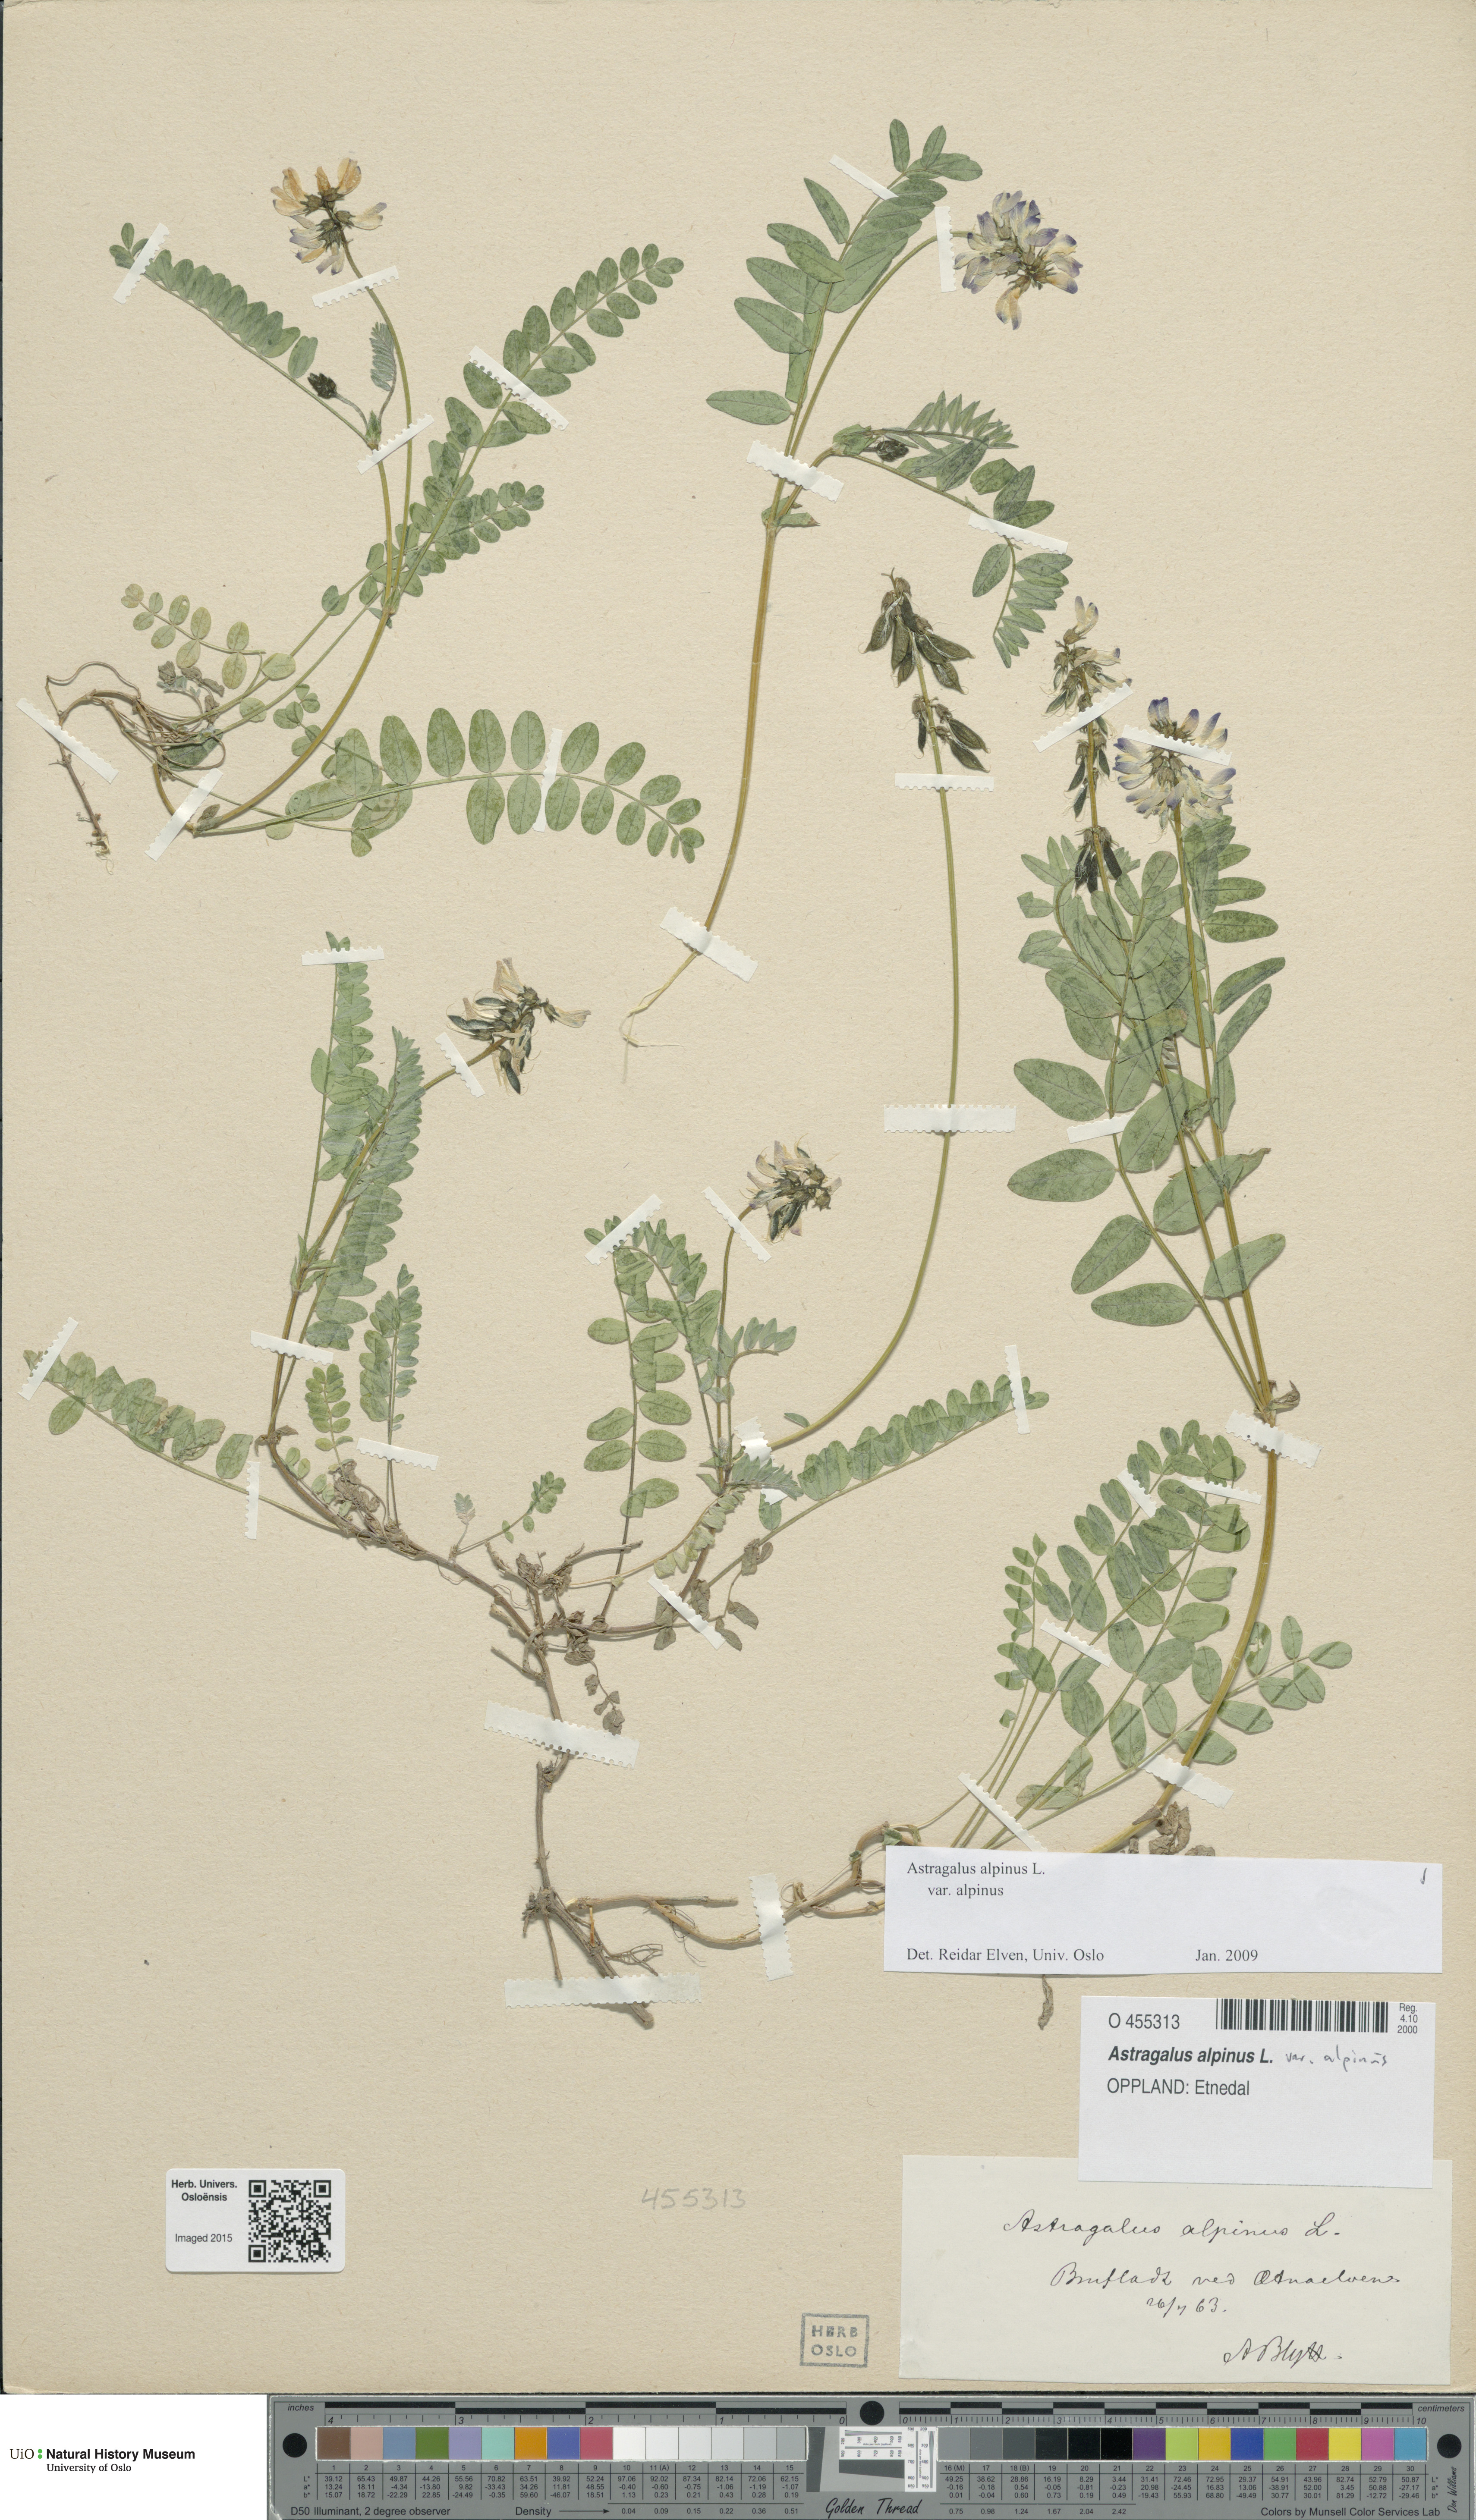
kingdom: Plantae
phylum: Tracheophyta
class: Magnoliopsida
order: Fabales
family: Fabaceae
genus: Astragalus
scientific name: Astragalus alpinus
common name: Alpine milk-vetch
